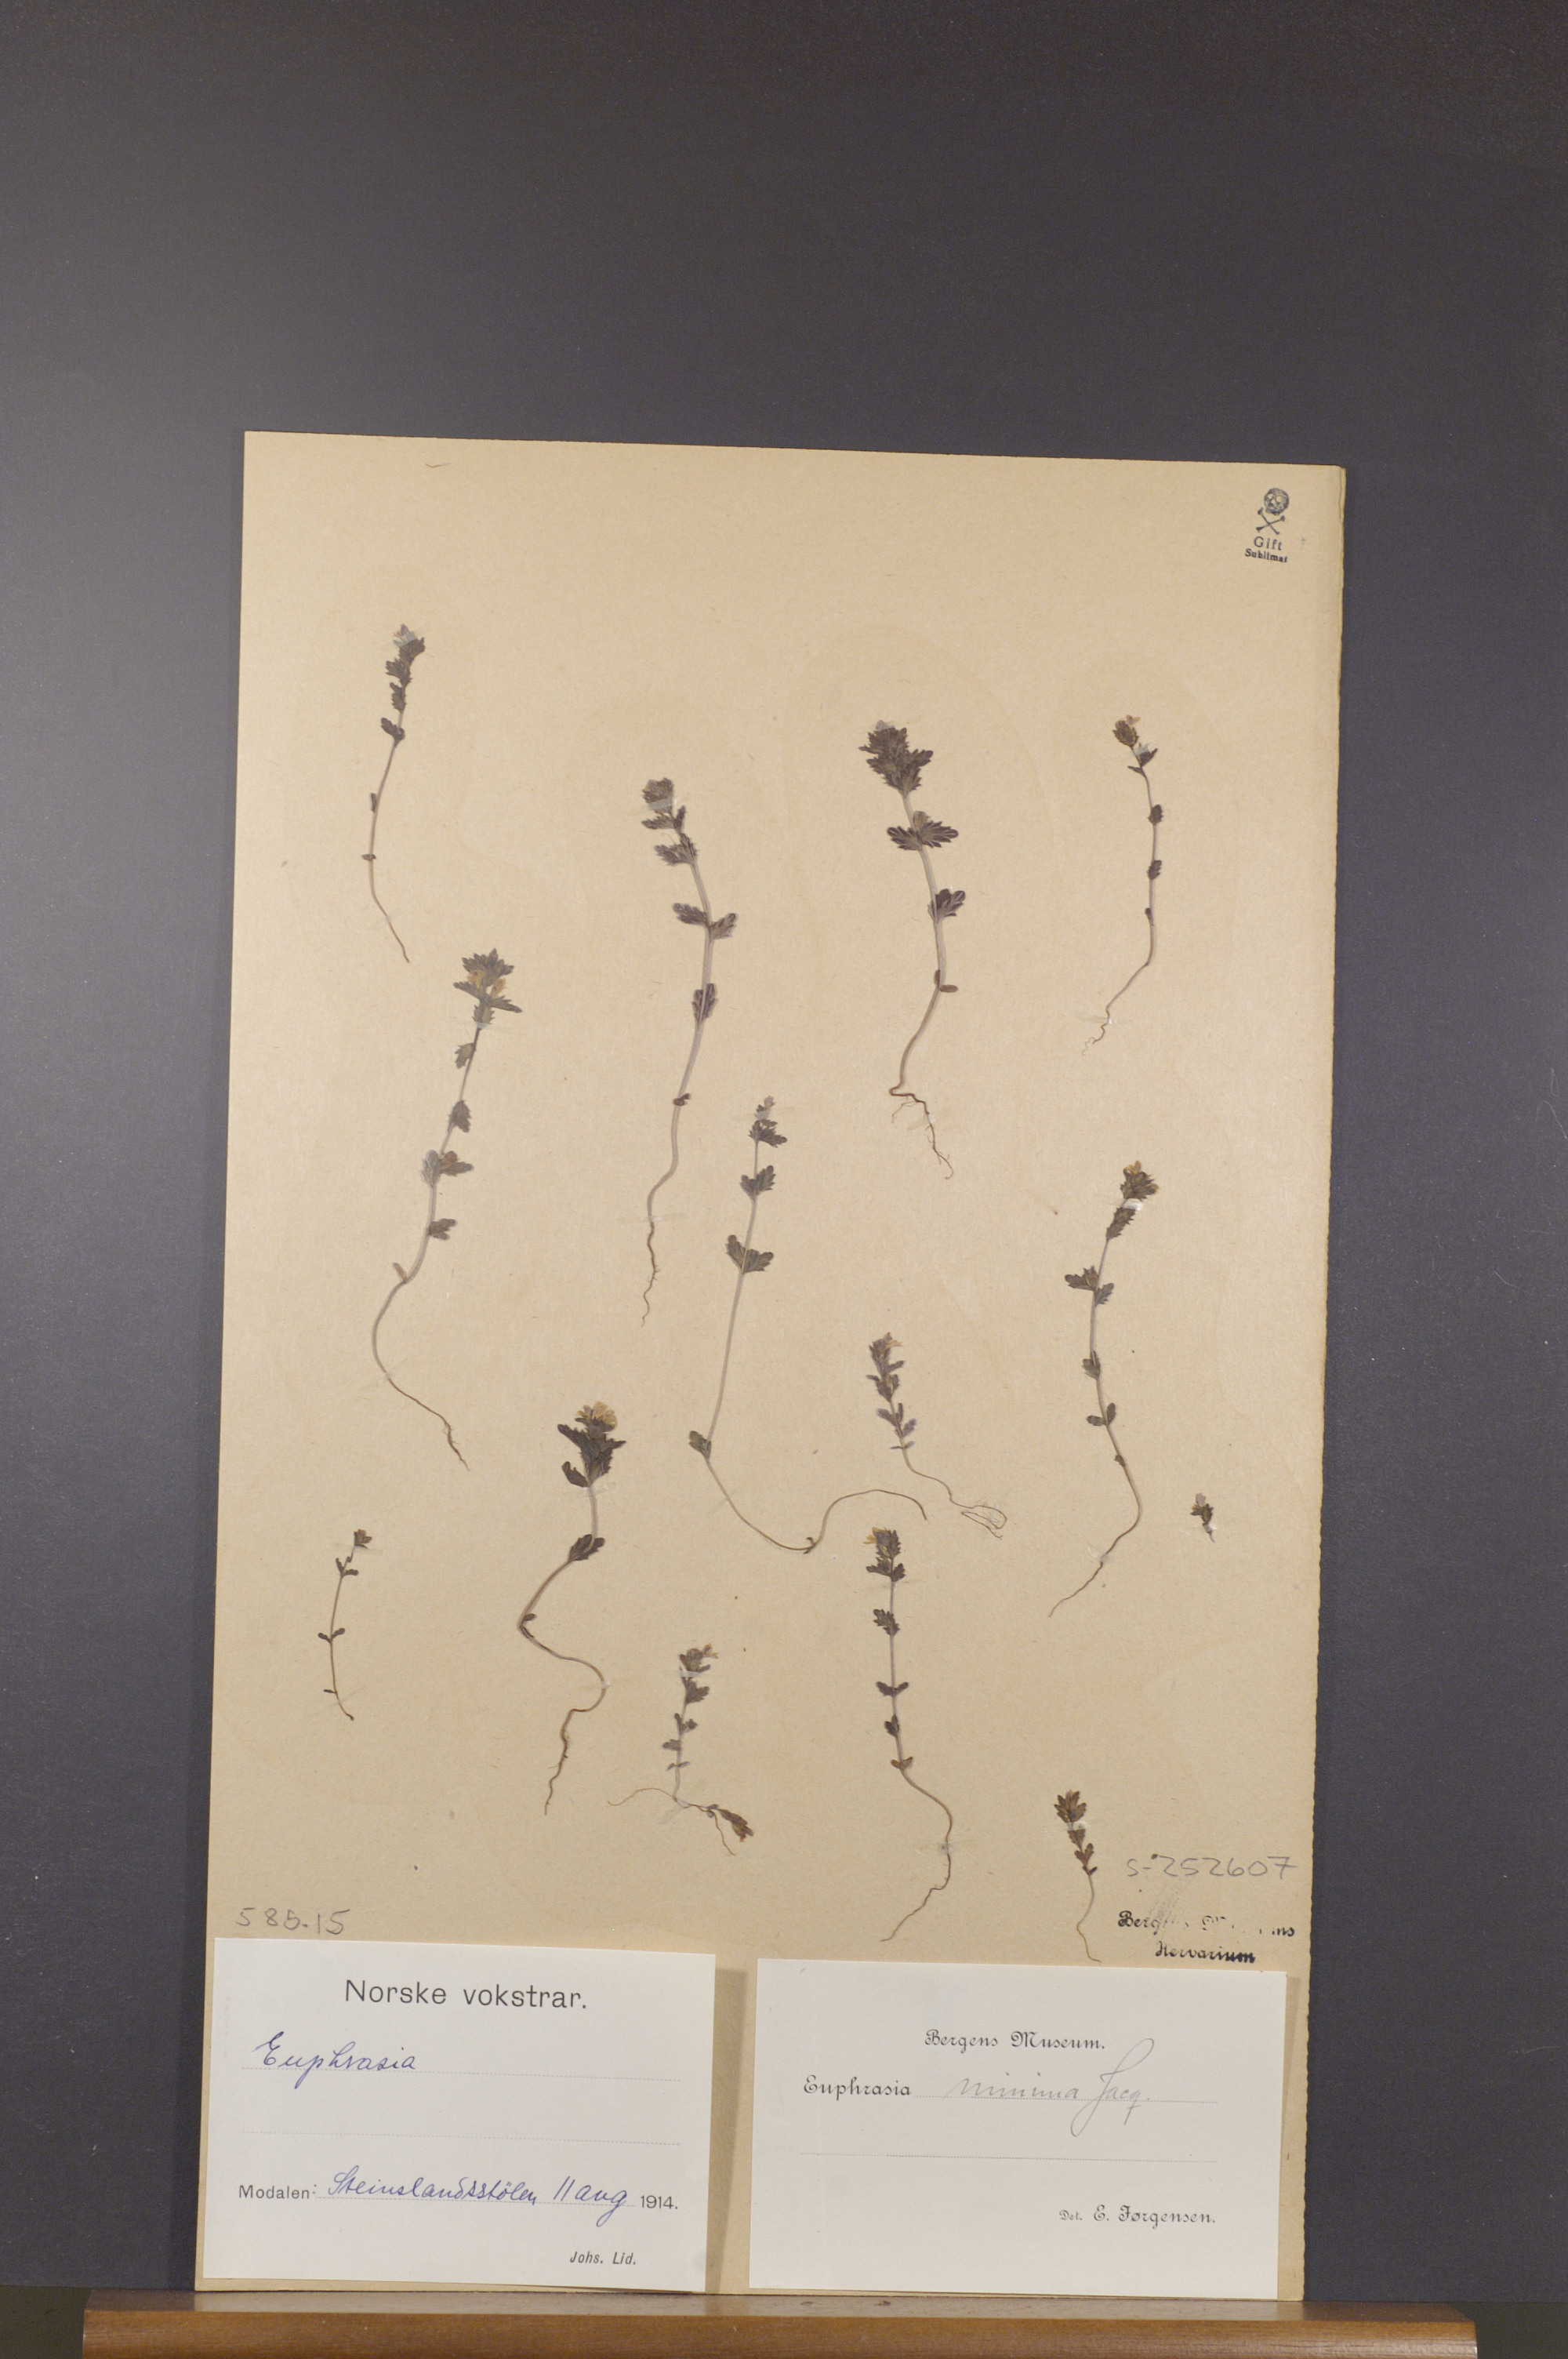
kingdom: Plantae
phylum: Tracheophyta
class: Magnoliopsida
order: Lamiales
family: Orobanchaceae
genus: Euphrasia
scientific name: Euphrasia minima
